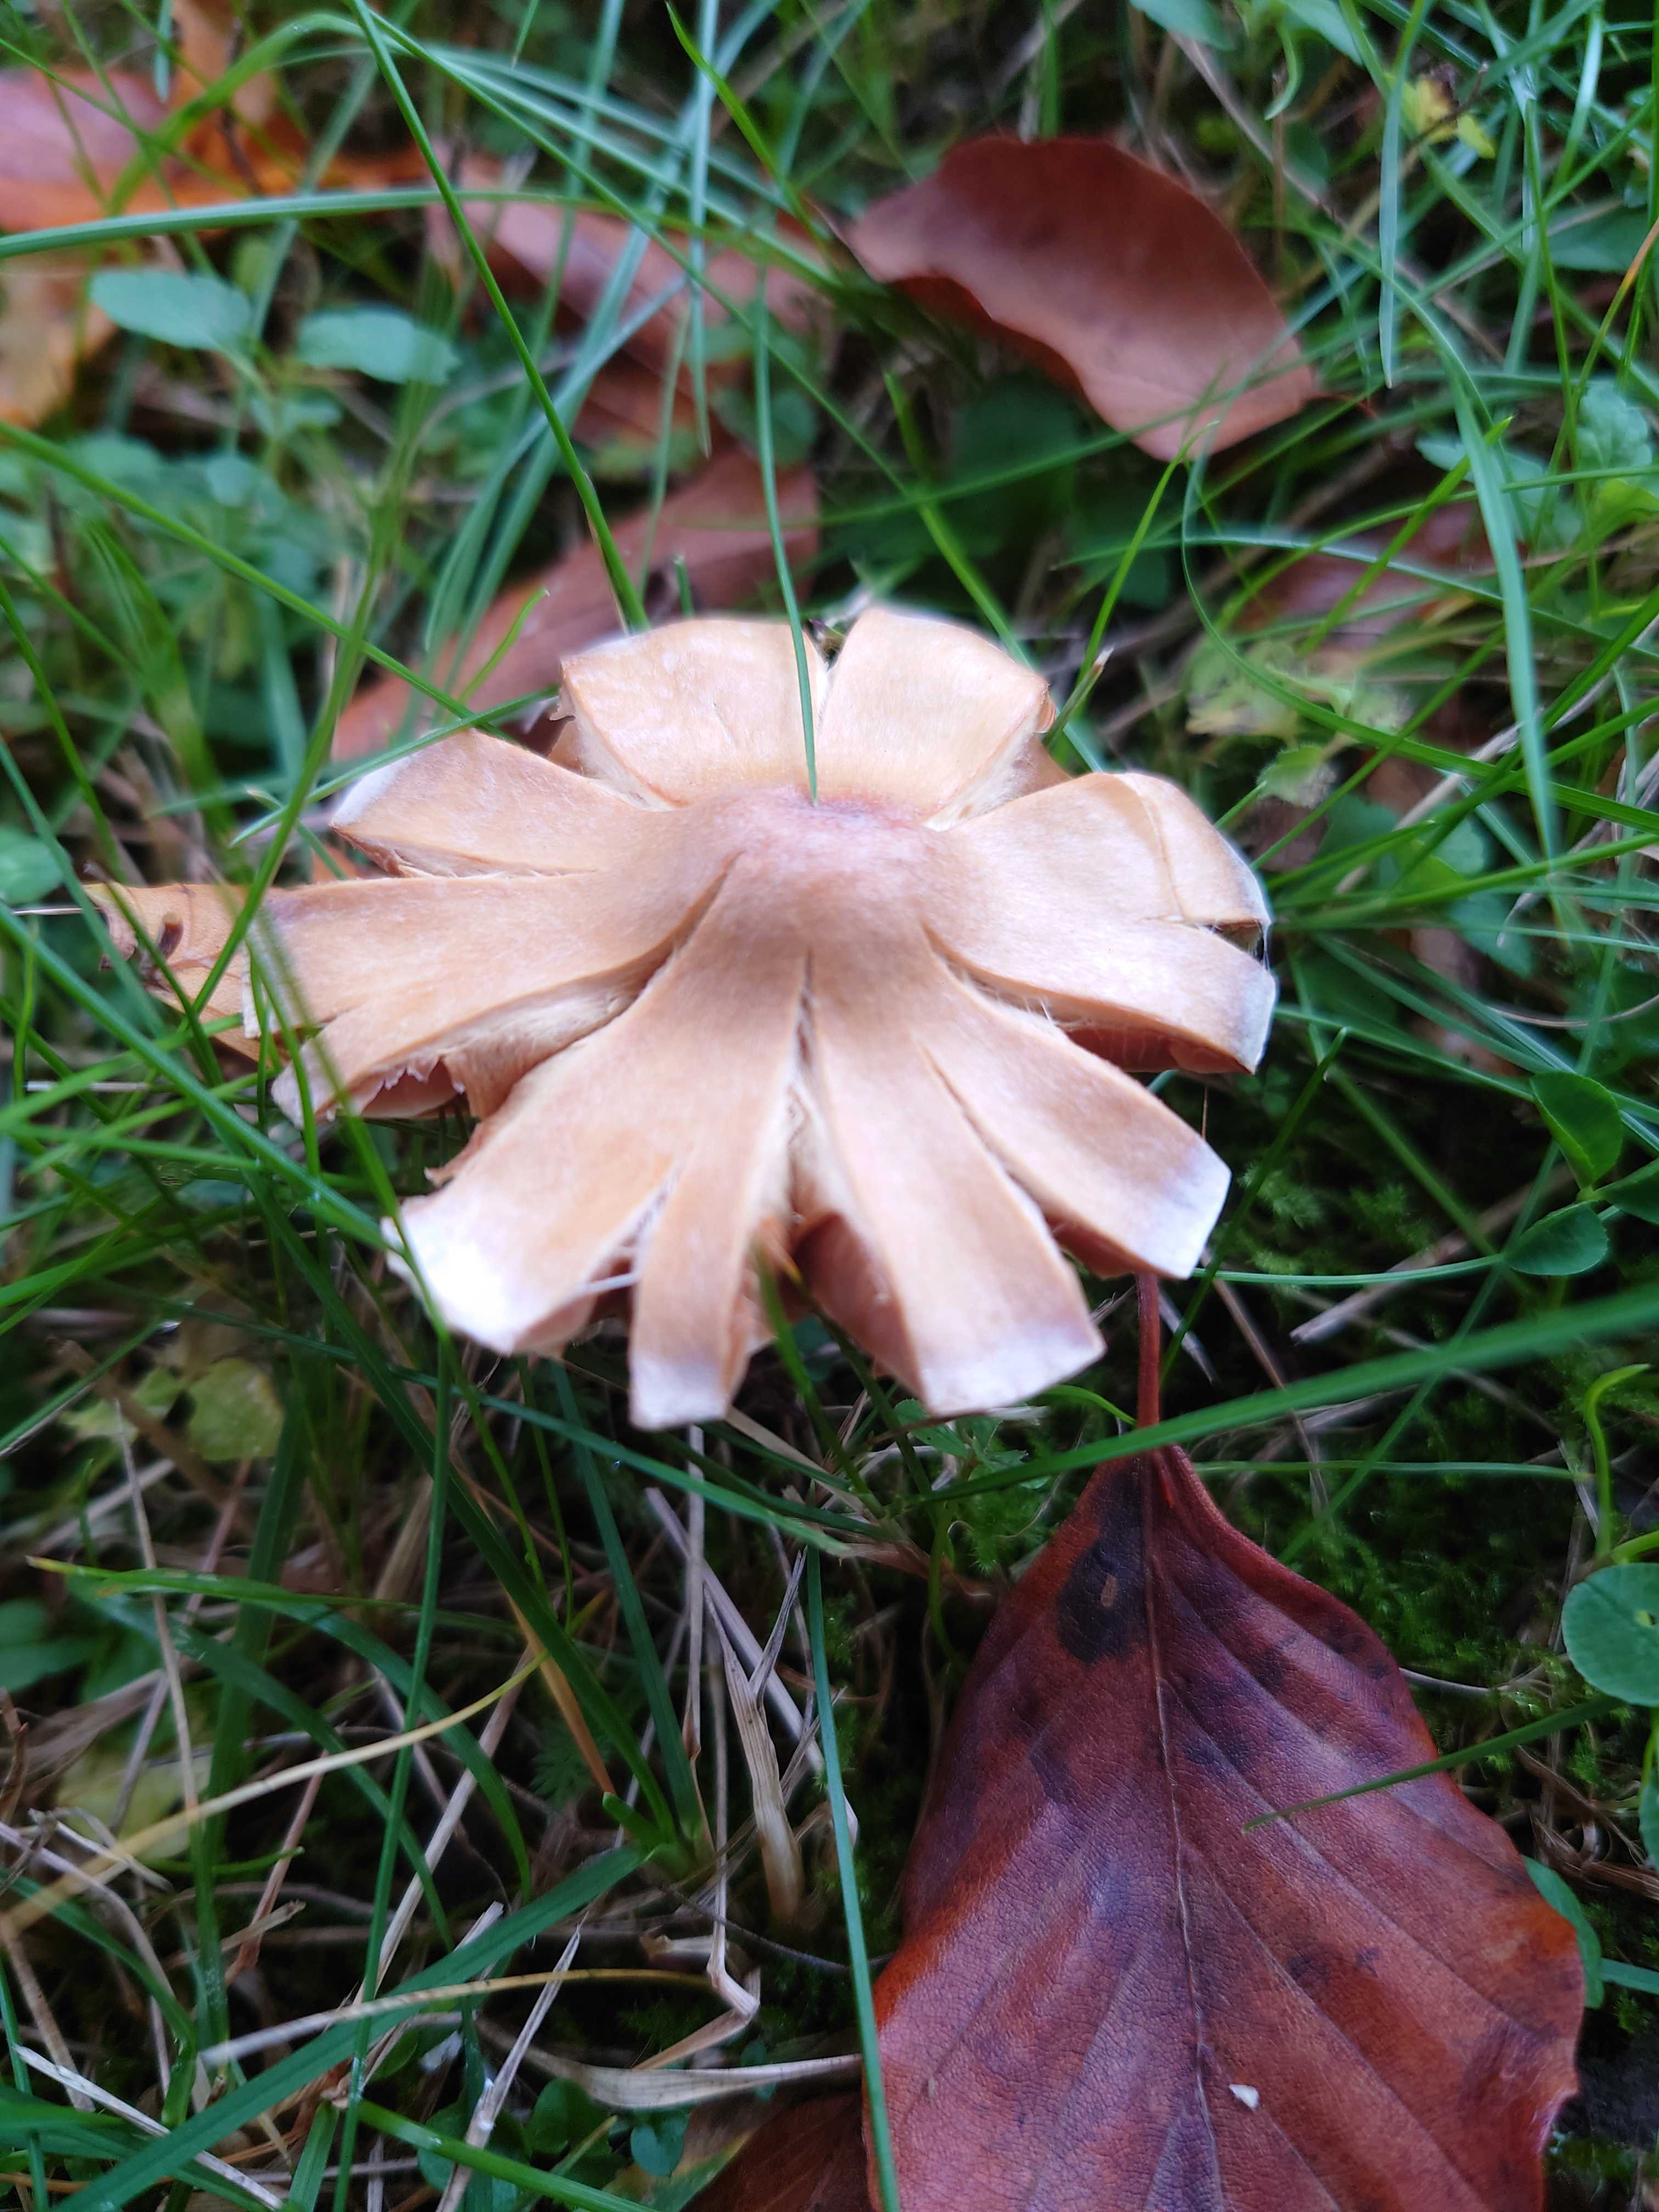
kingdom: Fungi
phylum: Basidiomycota
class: Agaricomycetes
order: Agaricales
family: Cortinariaceae
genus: Cortinarius
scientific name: Cortinarius
